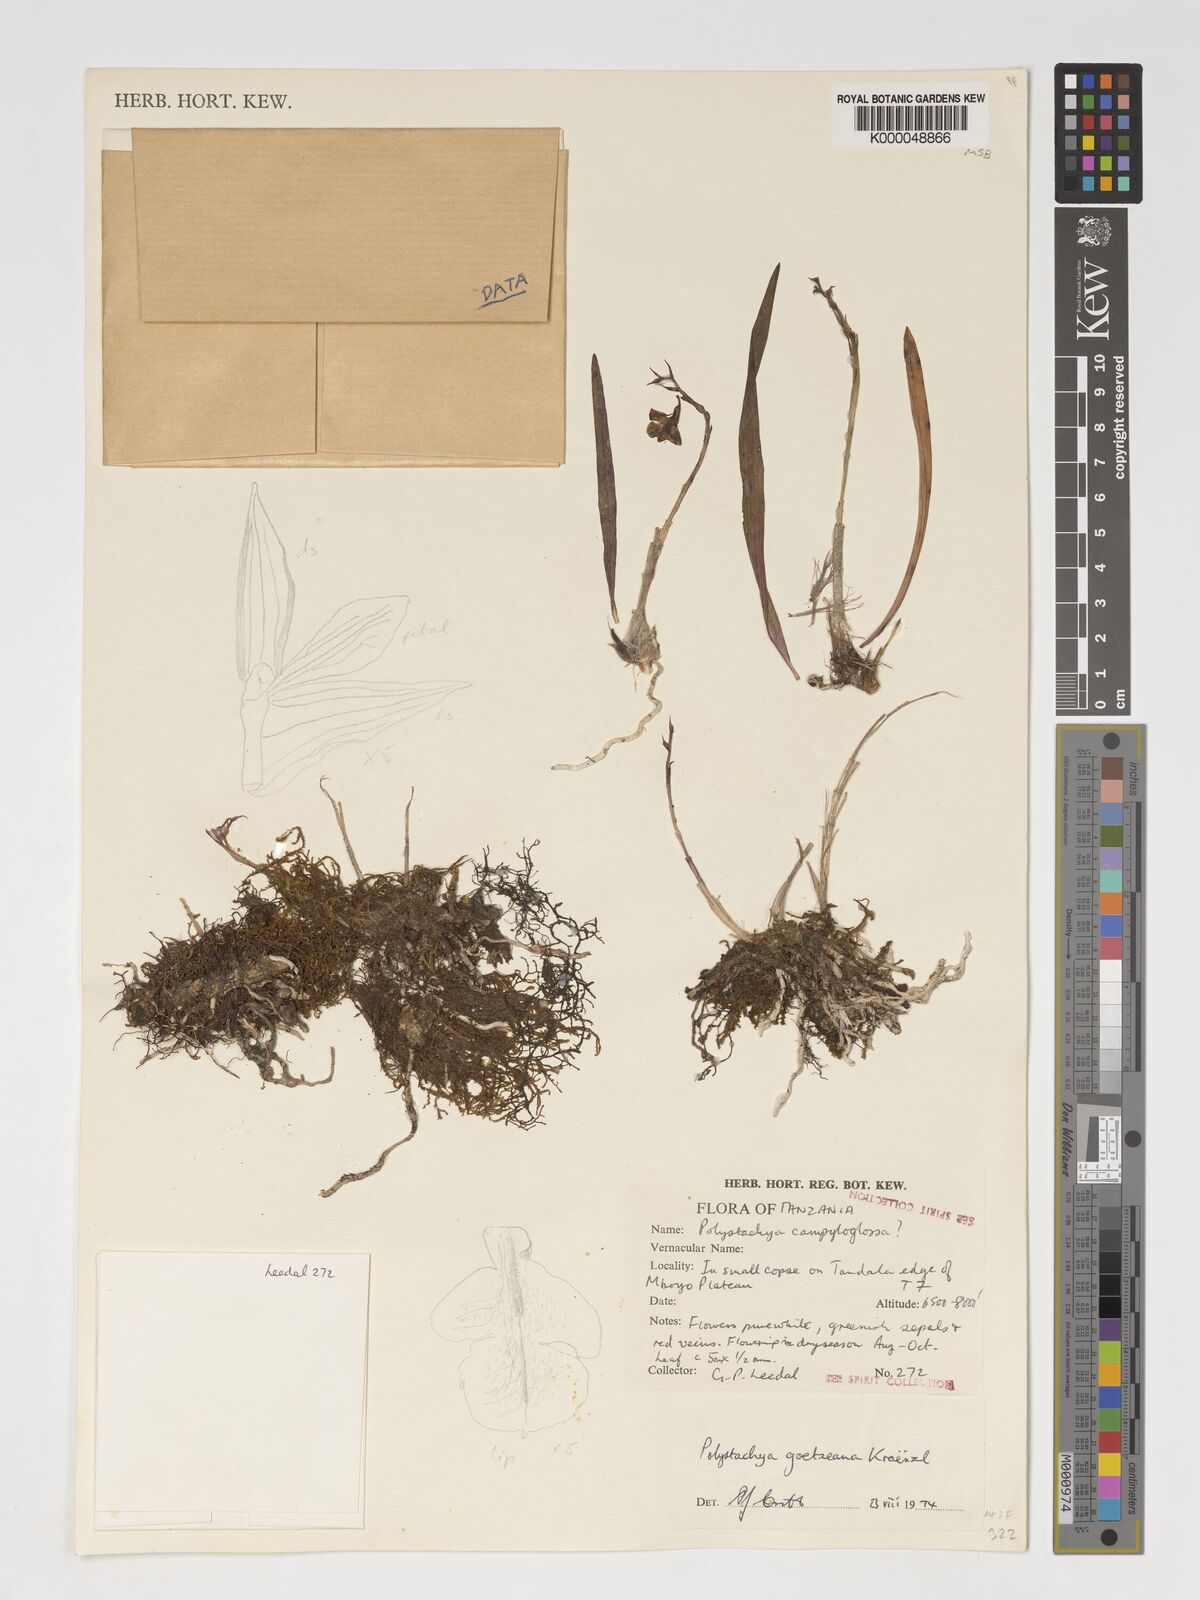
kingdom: Plantae
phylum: Tracheophyta
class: Liliopsida
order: Asparagales
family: Orchidaceae
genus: Polystachya
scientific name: Polystachya goetzeana
